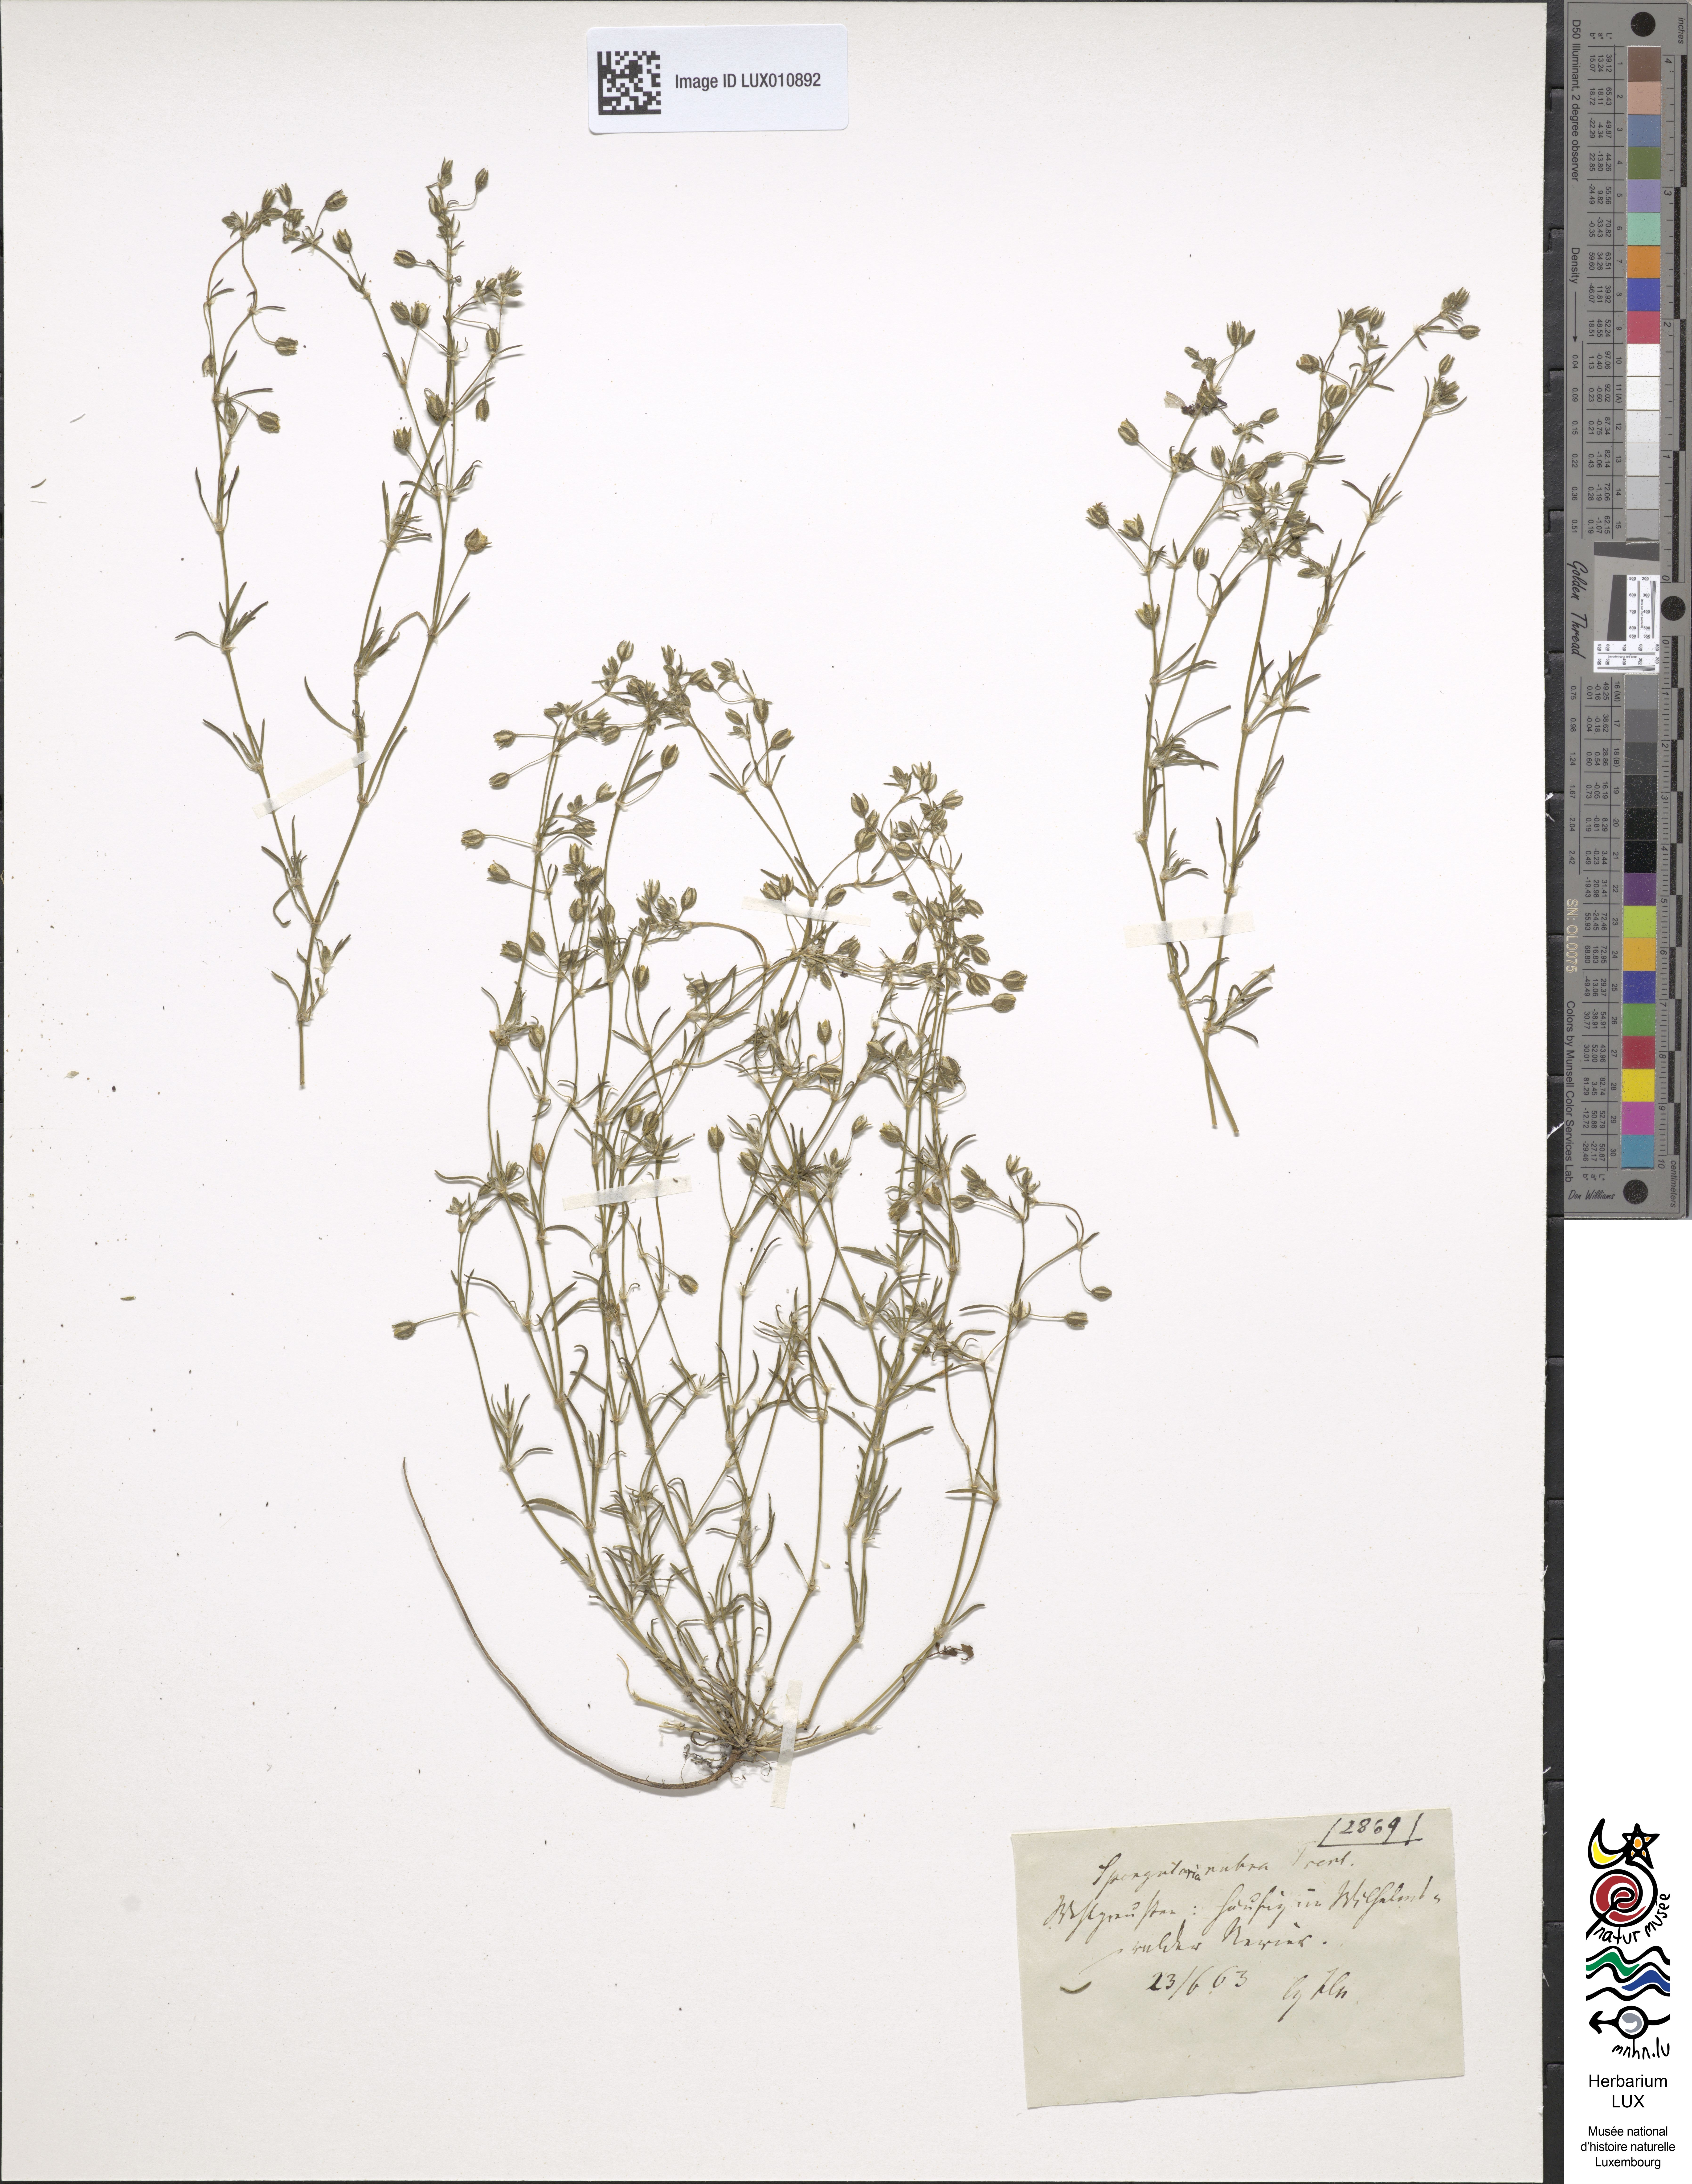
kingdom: Plantae
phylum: Tracheophyta
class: Magnoliopsida
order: Caryophyllales
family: Caryophyllaceae
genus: Spergularia
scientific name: Spergularia rubra
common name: Red sand-spurrey
